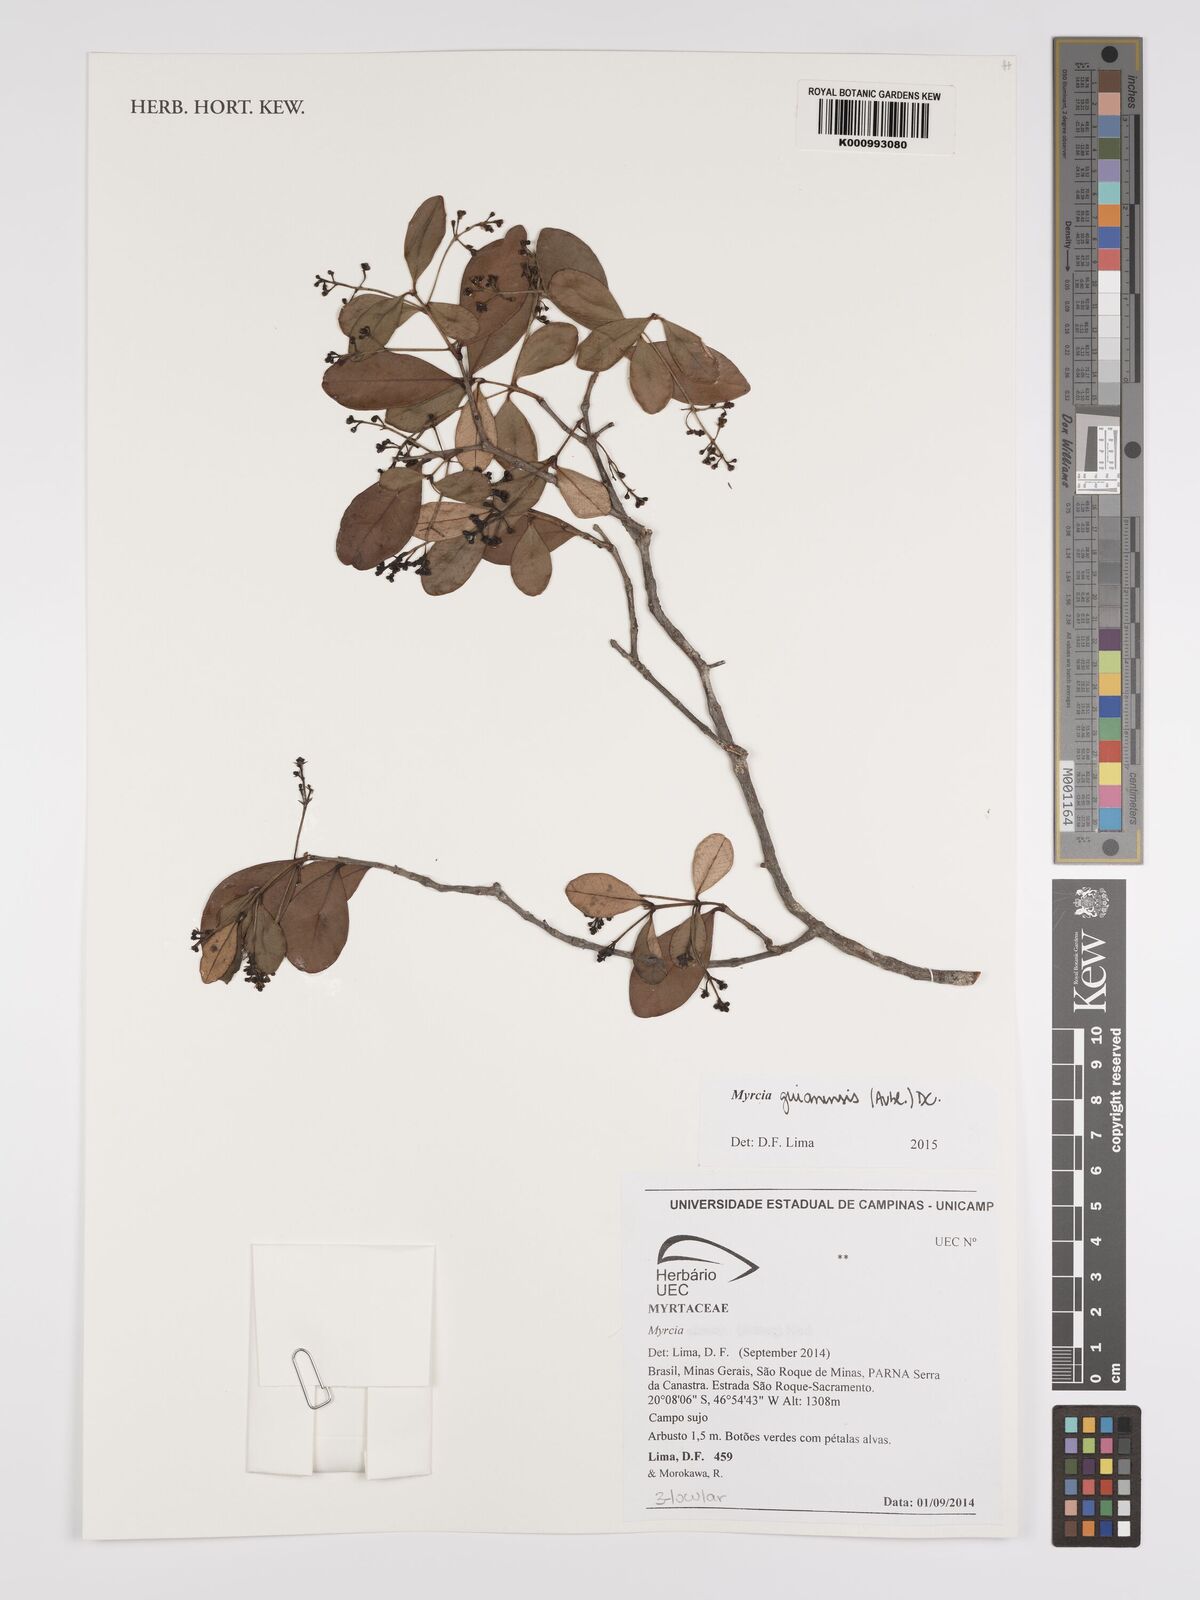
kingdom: Plantae
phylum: Tracheophyta
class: Magnoliopsida
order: Myrtales
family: Myrtaceae
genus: Myrcia
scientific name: Myrcia guianensis
